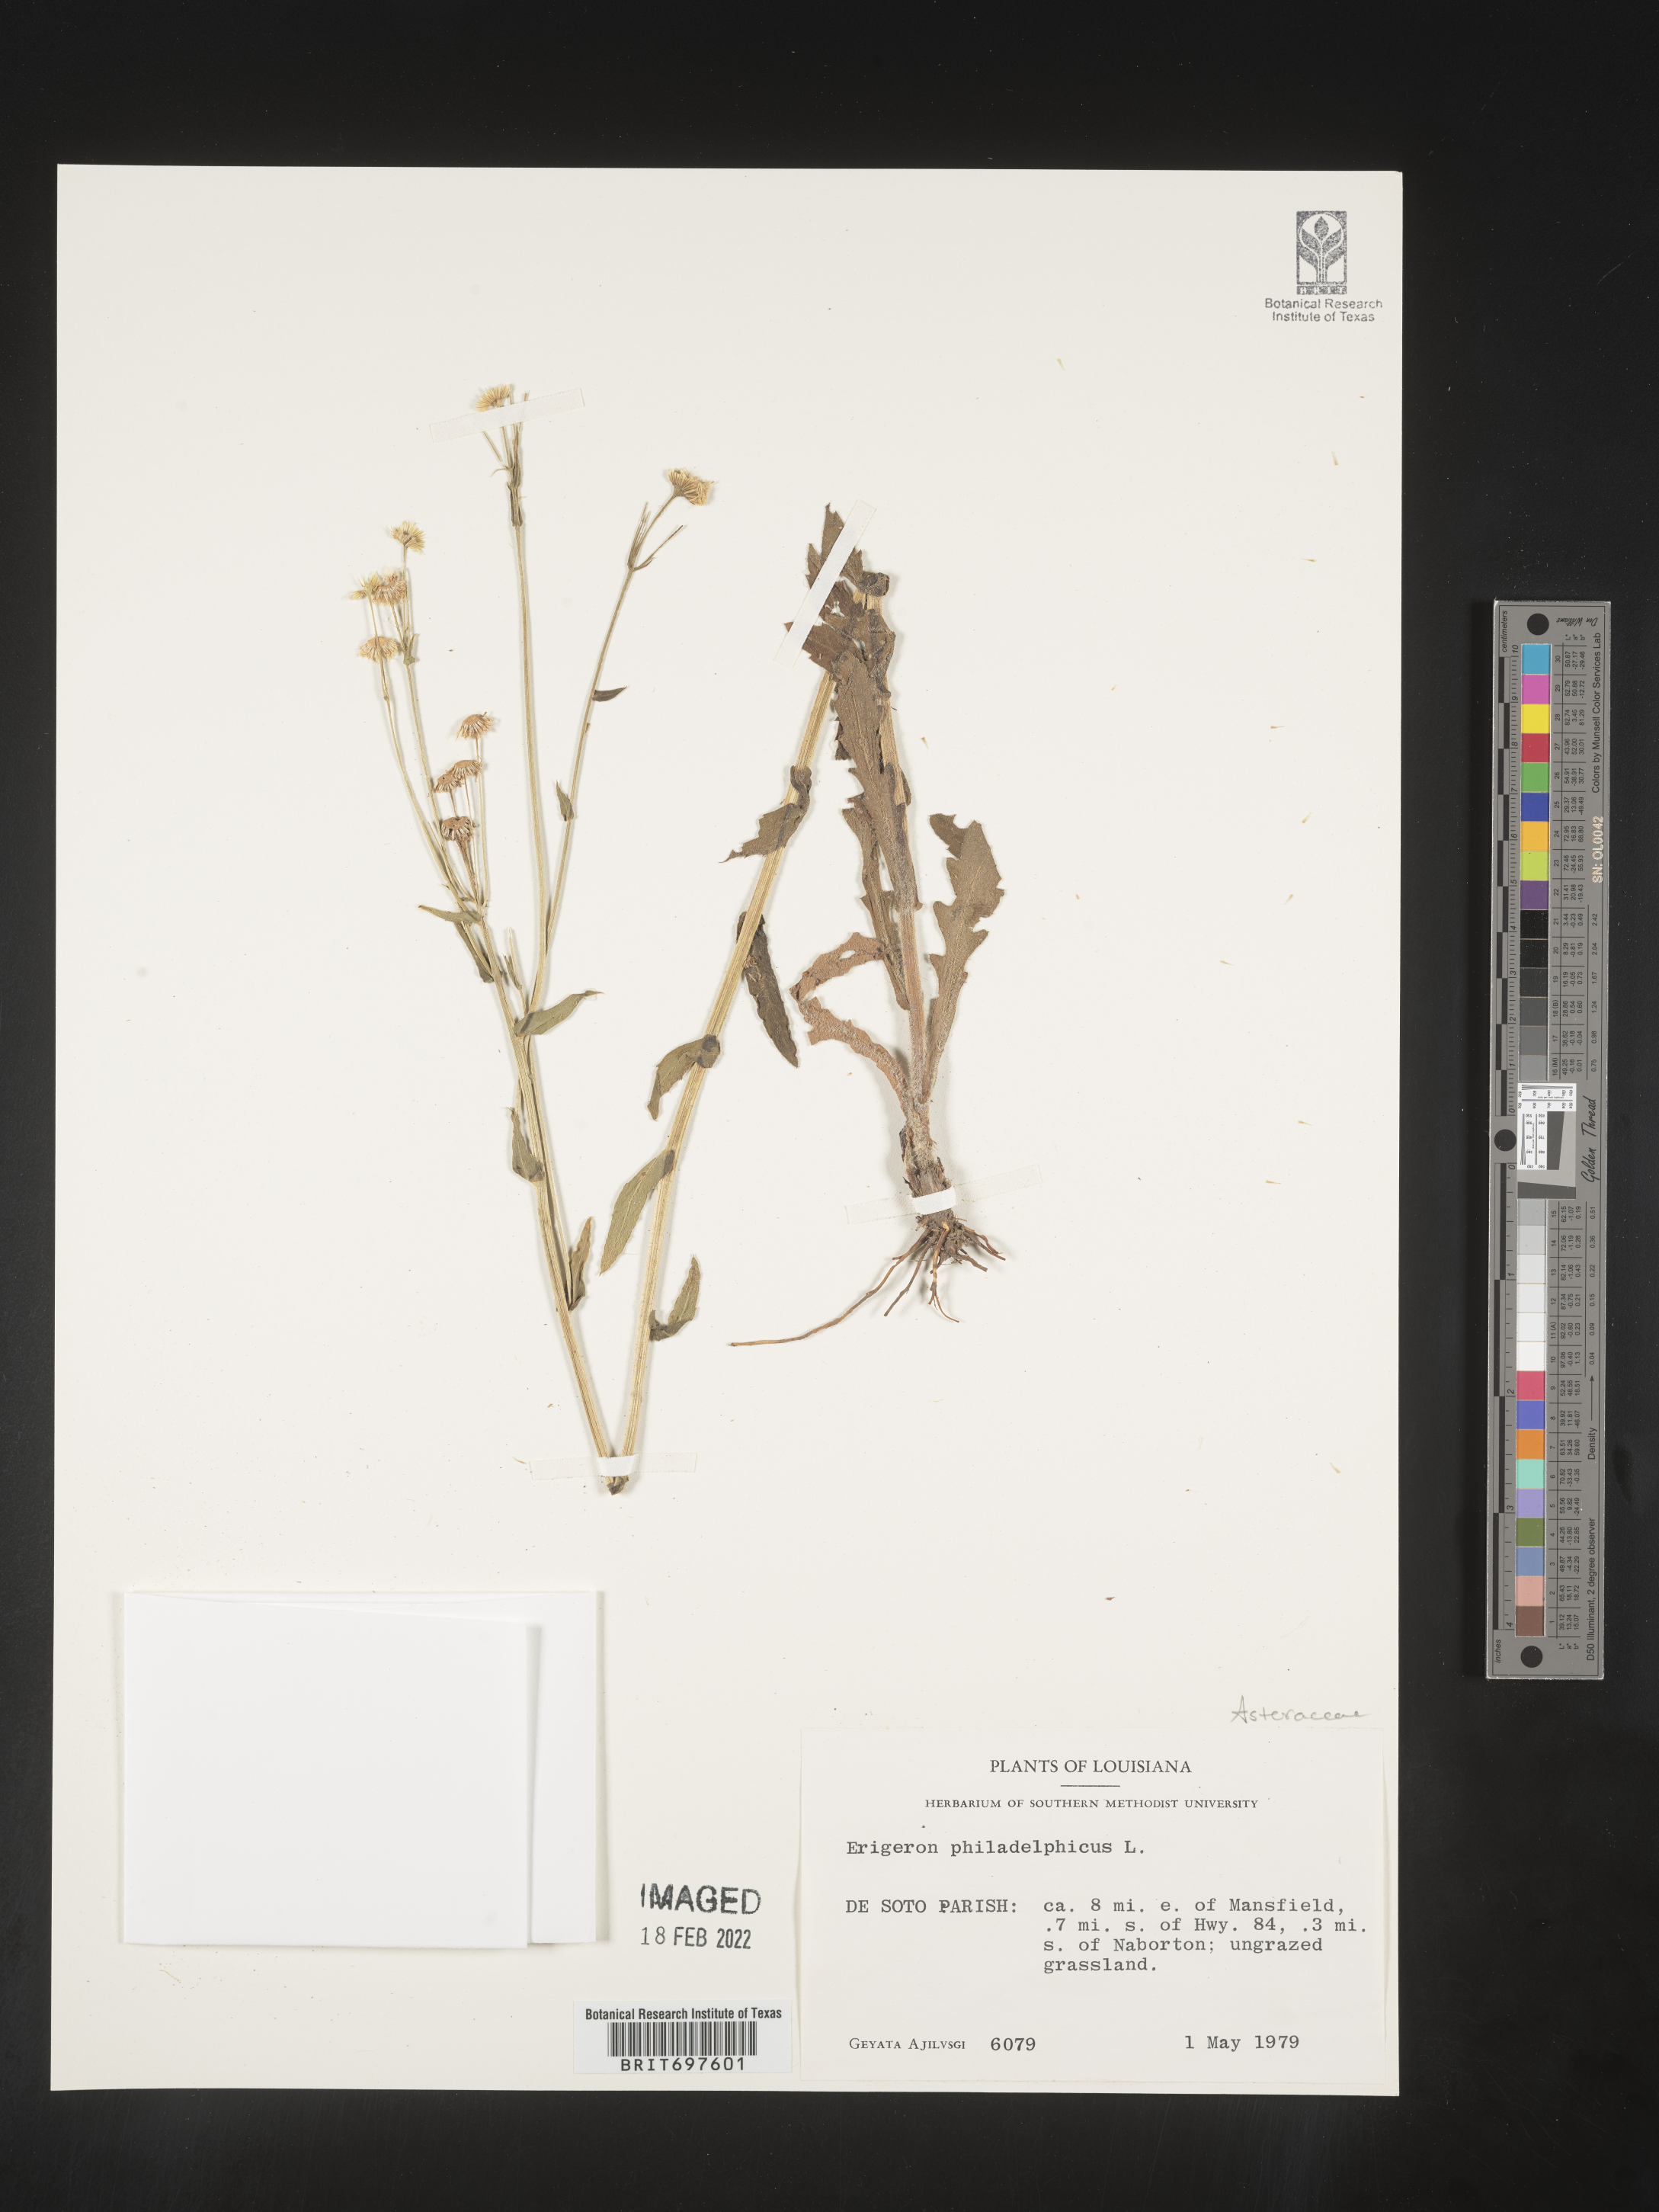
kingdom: Plantae
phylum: Tracheophyta
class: Magnoliopsida
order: Asterales
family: Asteraceae
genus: Erigeron
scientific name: Erigeron philadelphicus
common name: Robin's-plantain
